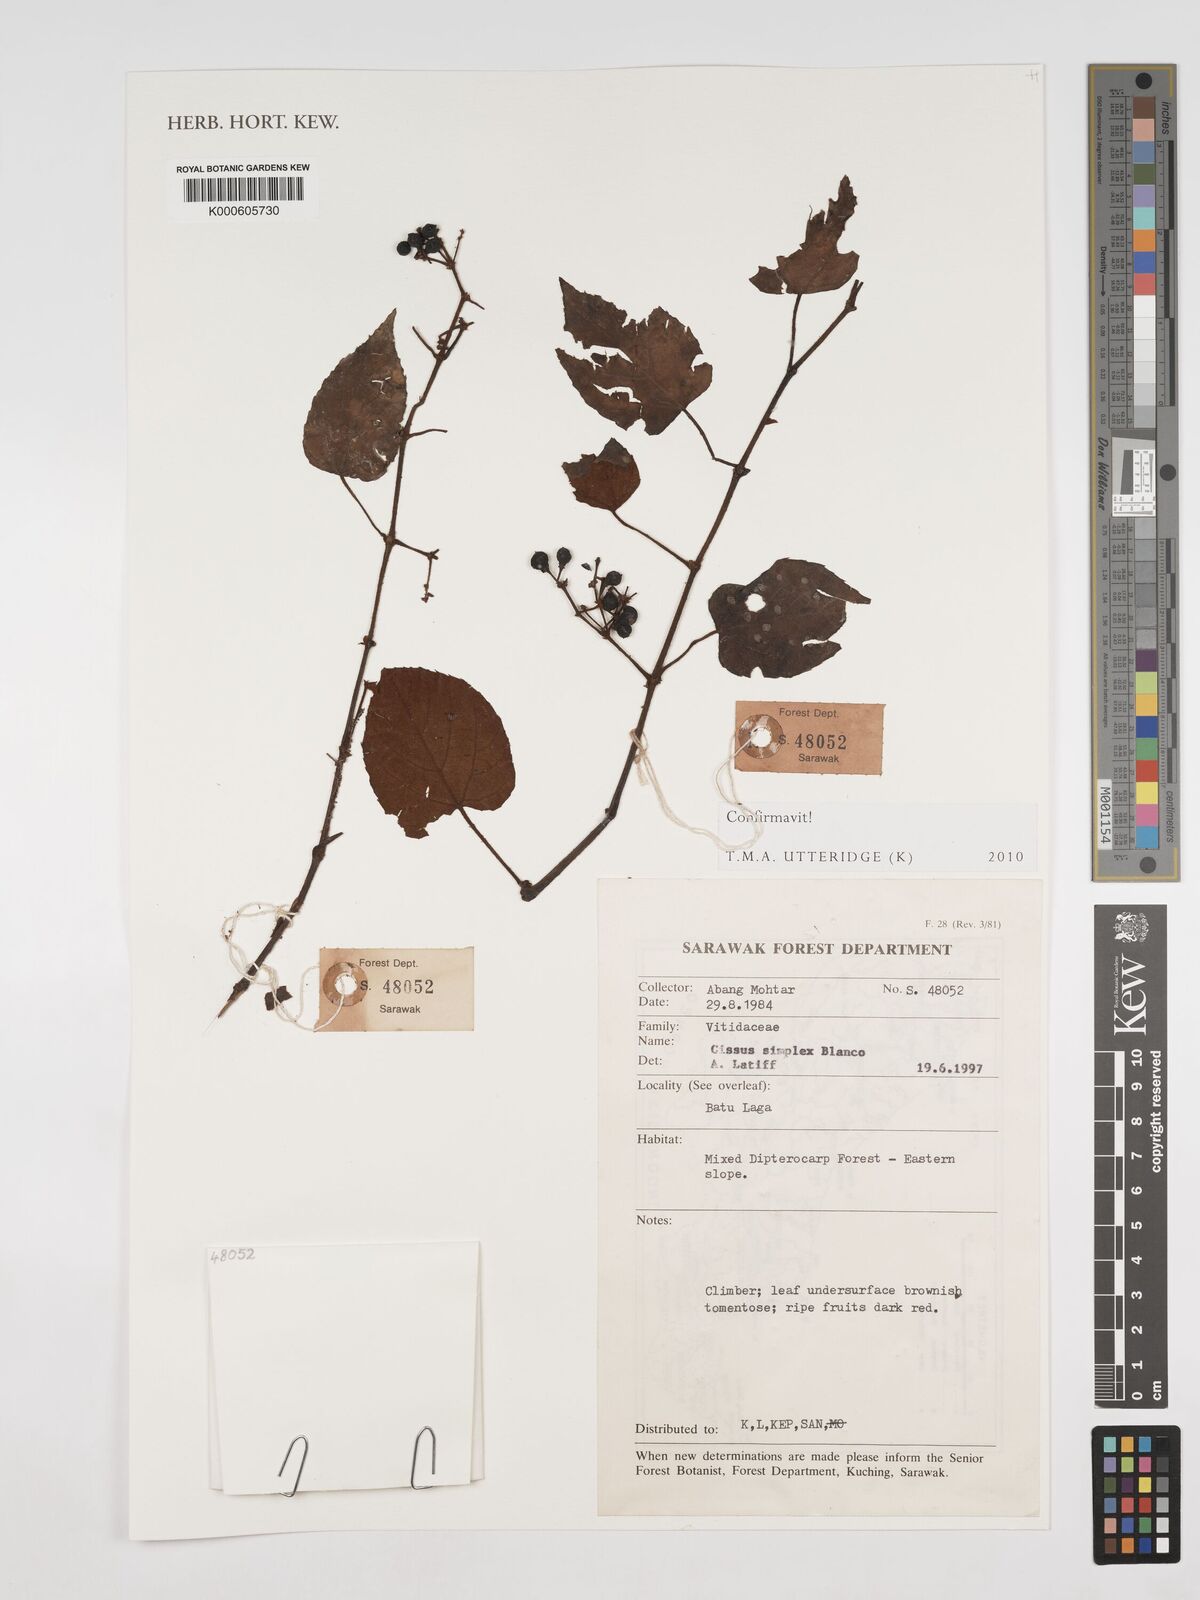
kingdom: Plantae
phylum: Tracheophyta
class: Magnoliopsida
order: Vitales
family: Vitaceae
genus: Cissus
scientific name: Cissus aristata
